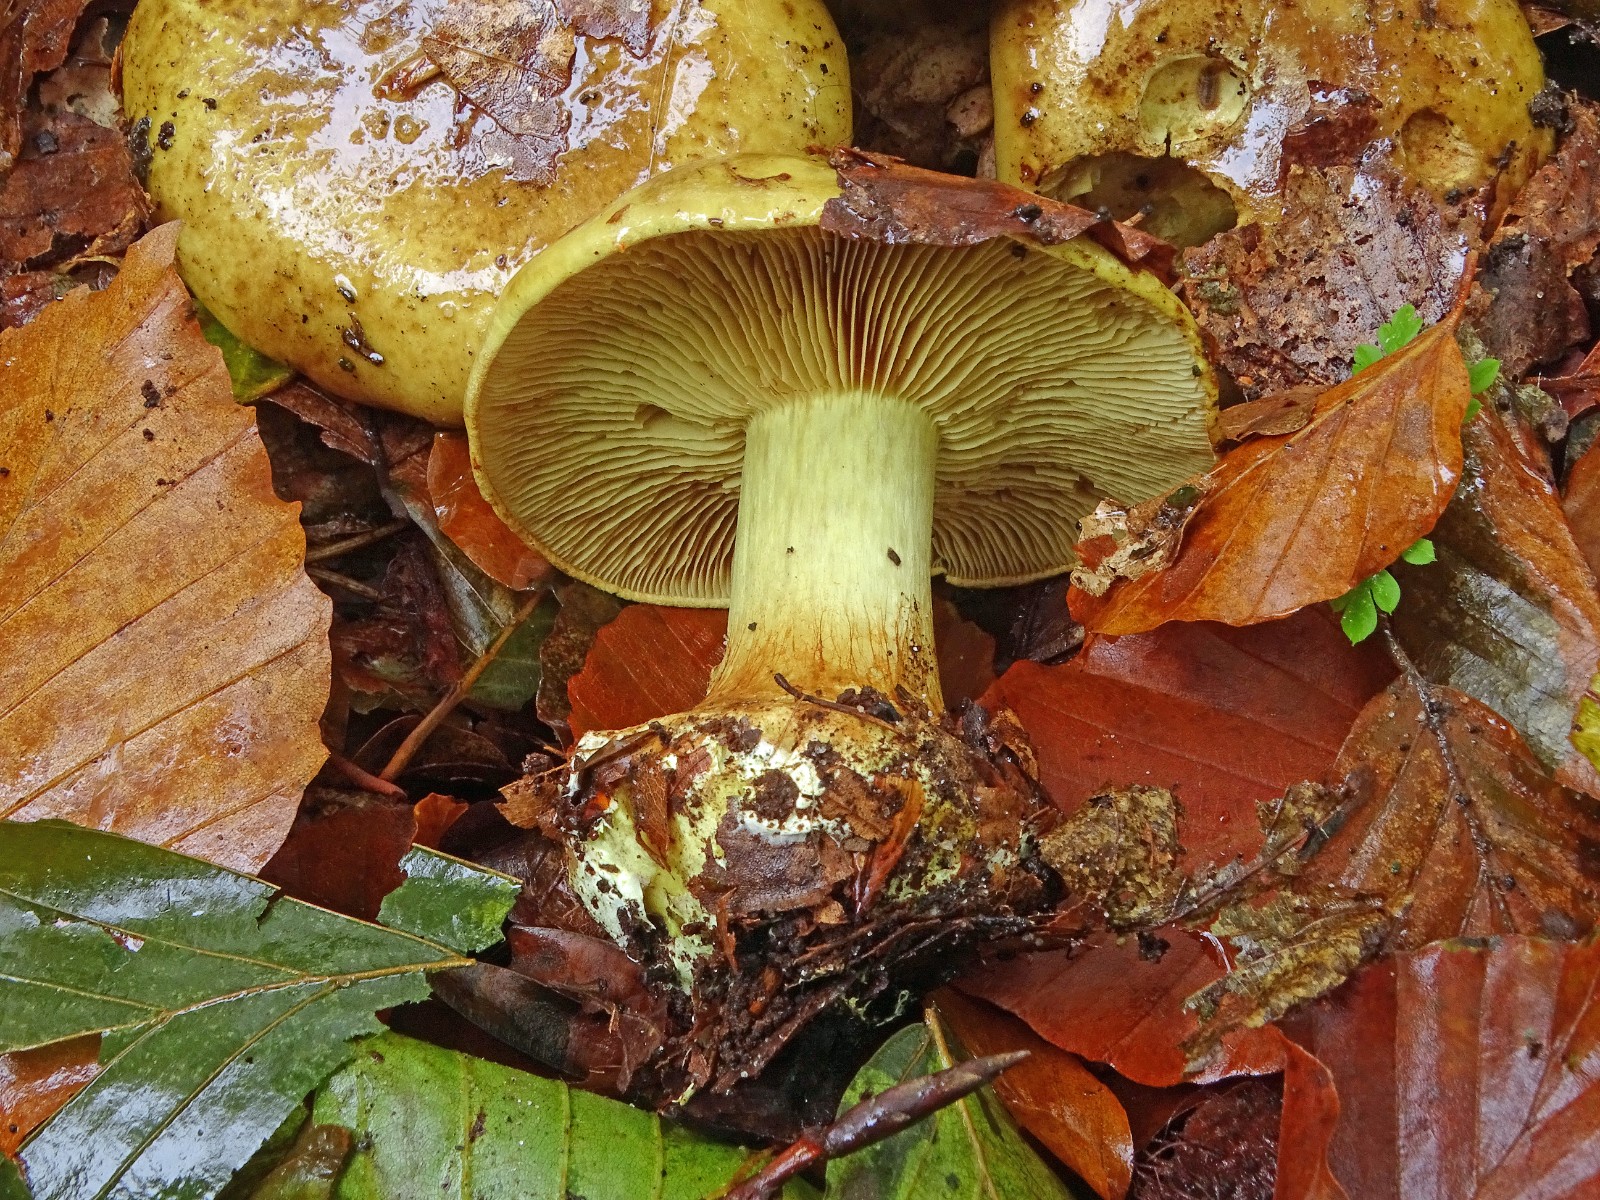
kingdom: Fungi
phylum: Basidiomycota
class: Agaricomycetes
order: Agaricales
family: Cortinariaceae
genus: Calonarius
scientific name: Calonarius citrinus
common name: citrongul slørhat
